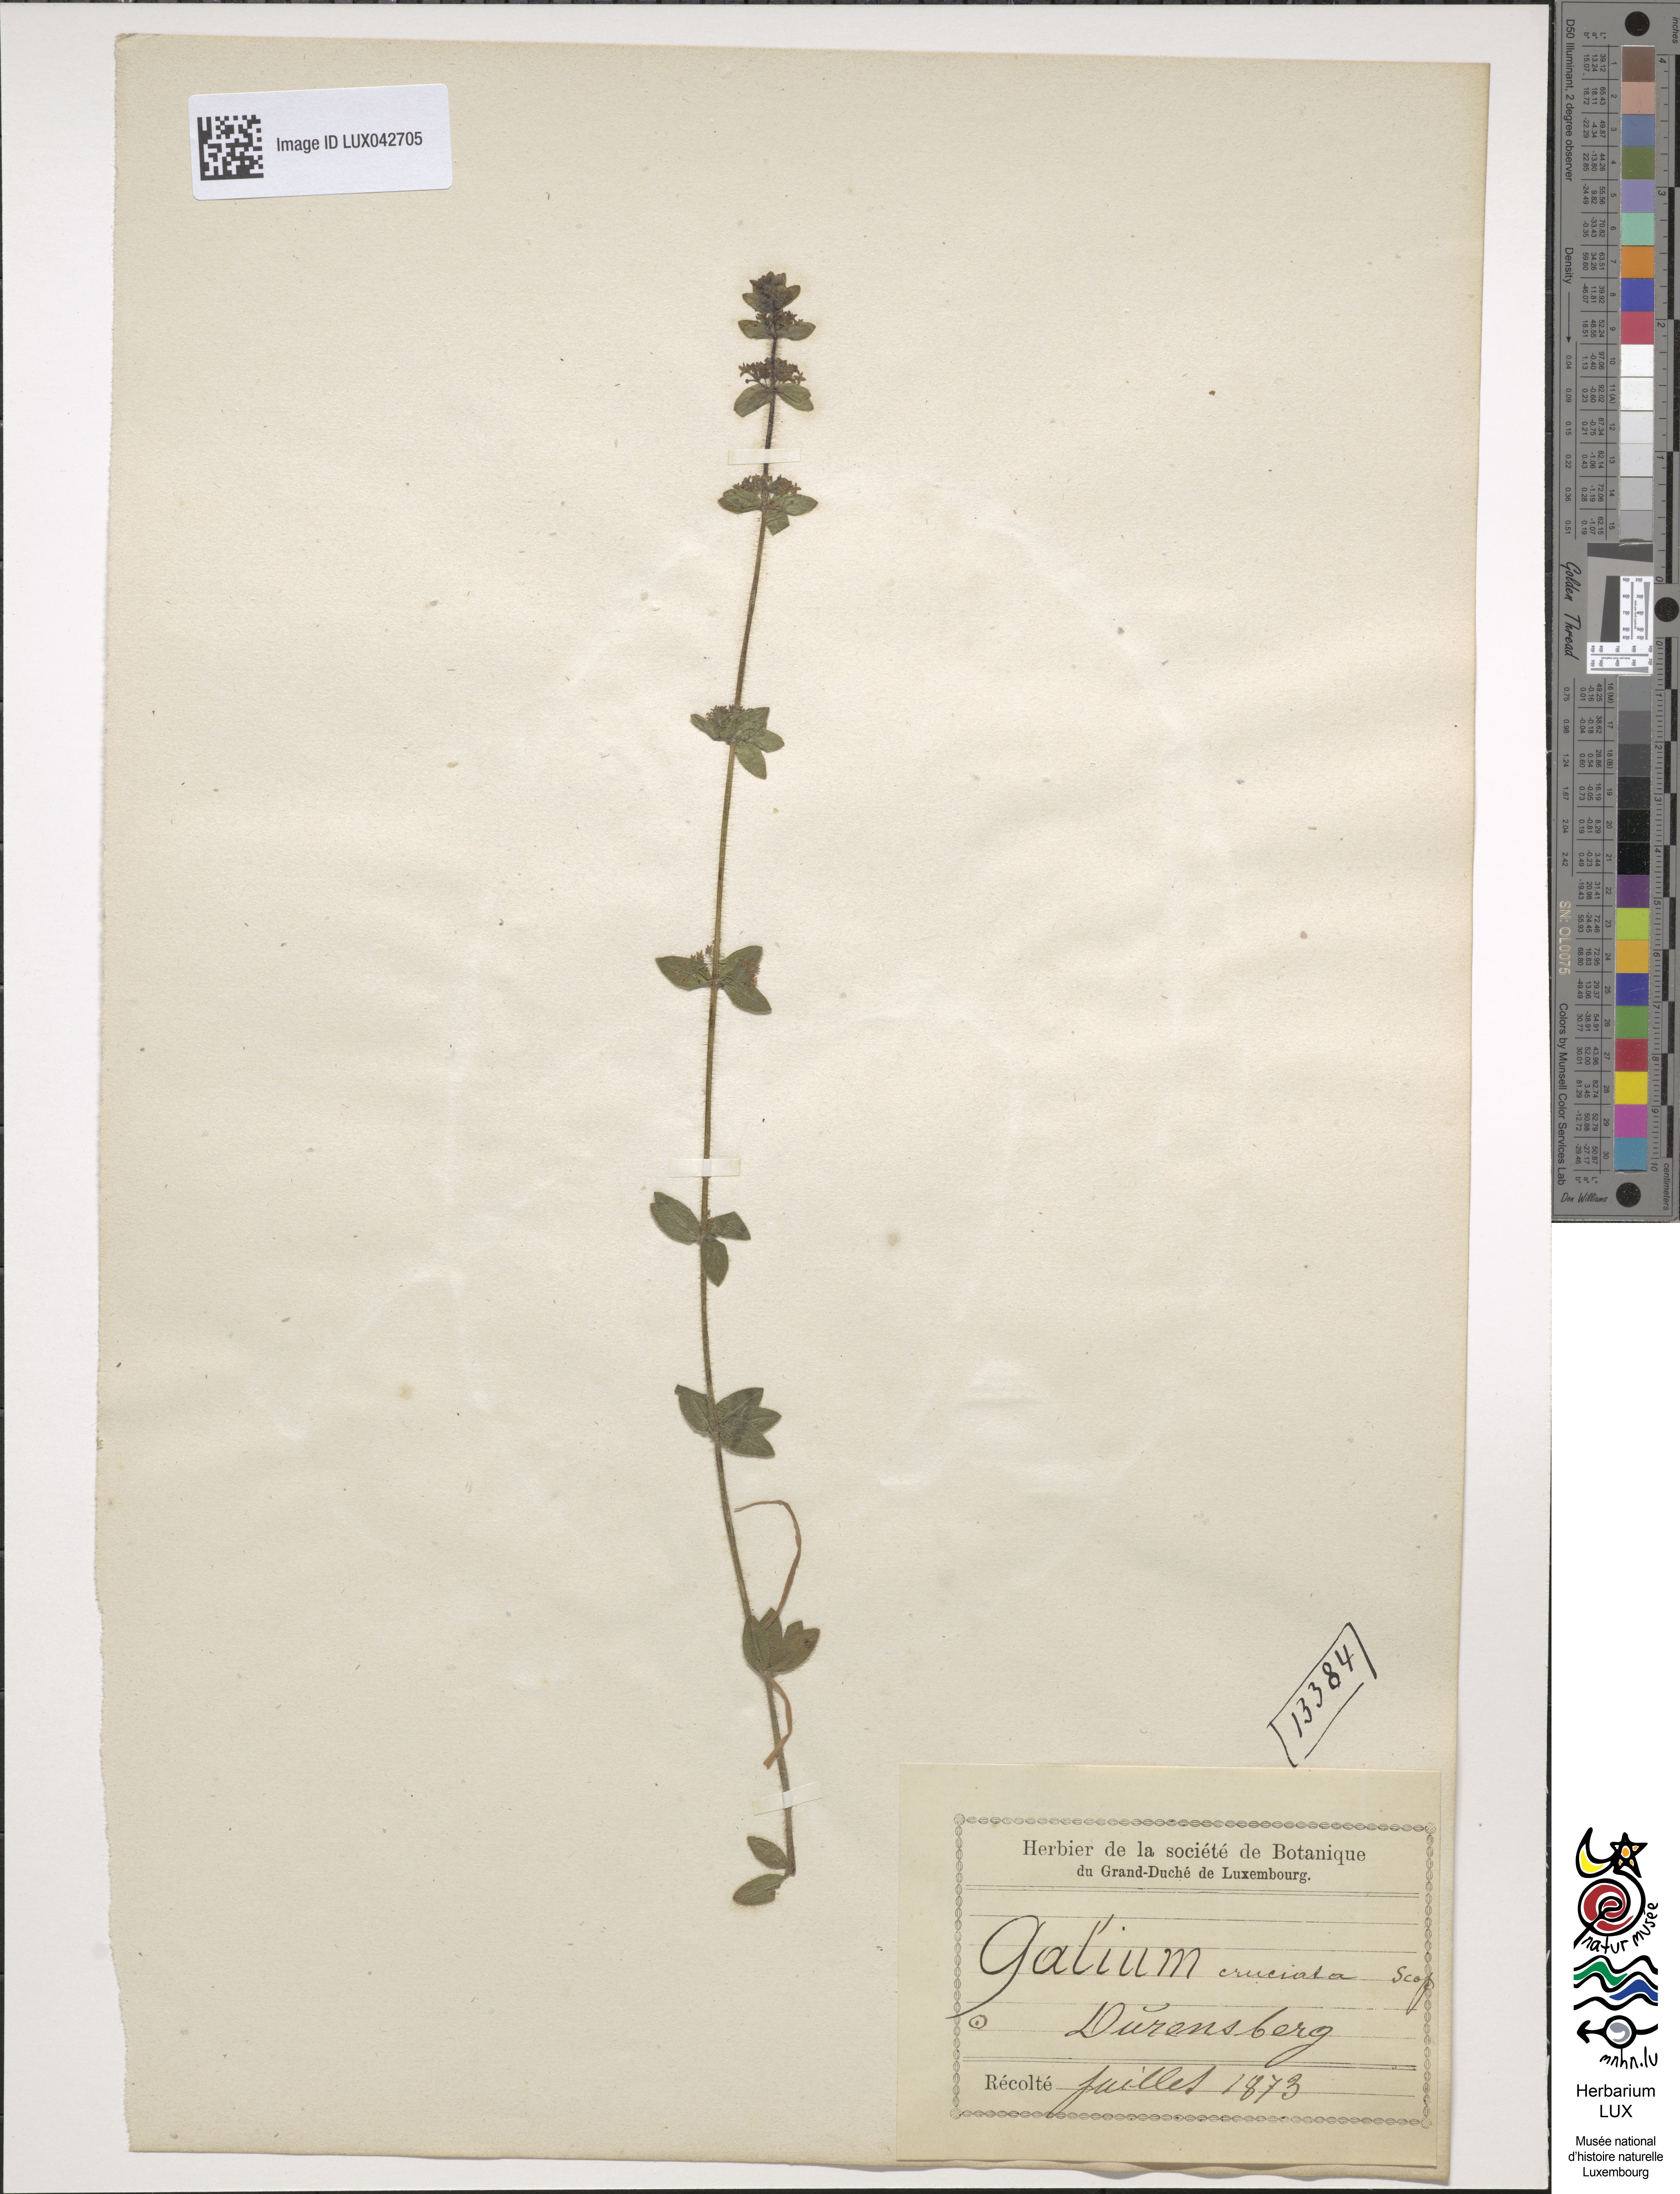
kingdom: Plantae
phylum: Tracheophyta
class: Magnoliopsida
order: Gentianales
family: Rubiaceae
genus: Cruciata
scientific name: Cruciata laevipes
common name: Crosswort
